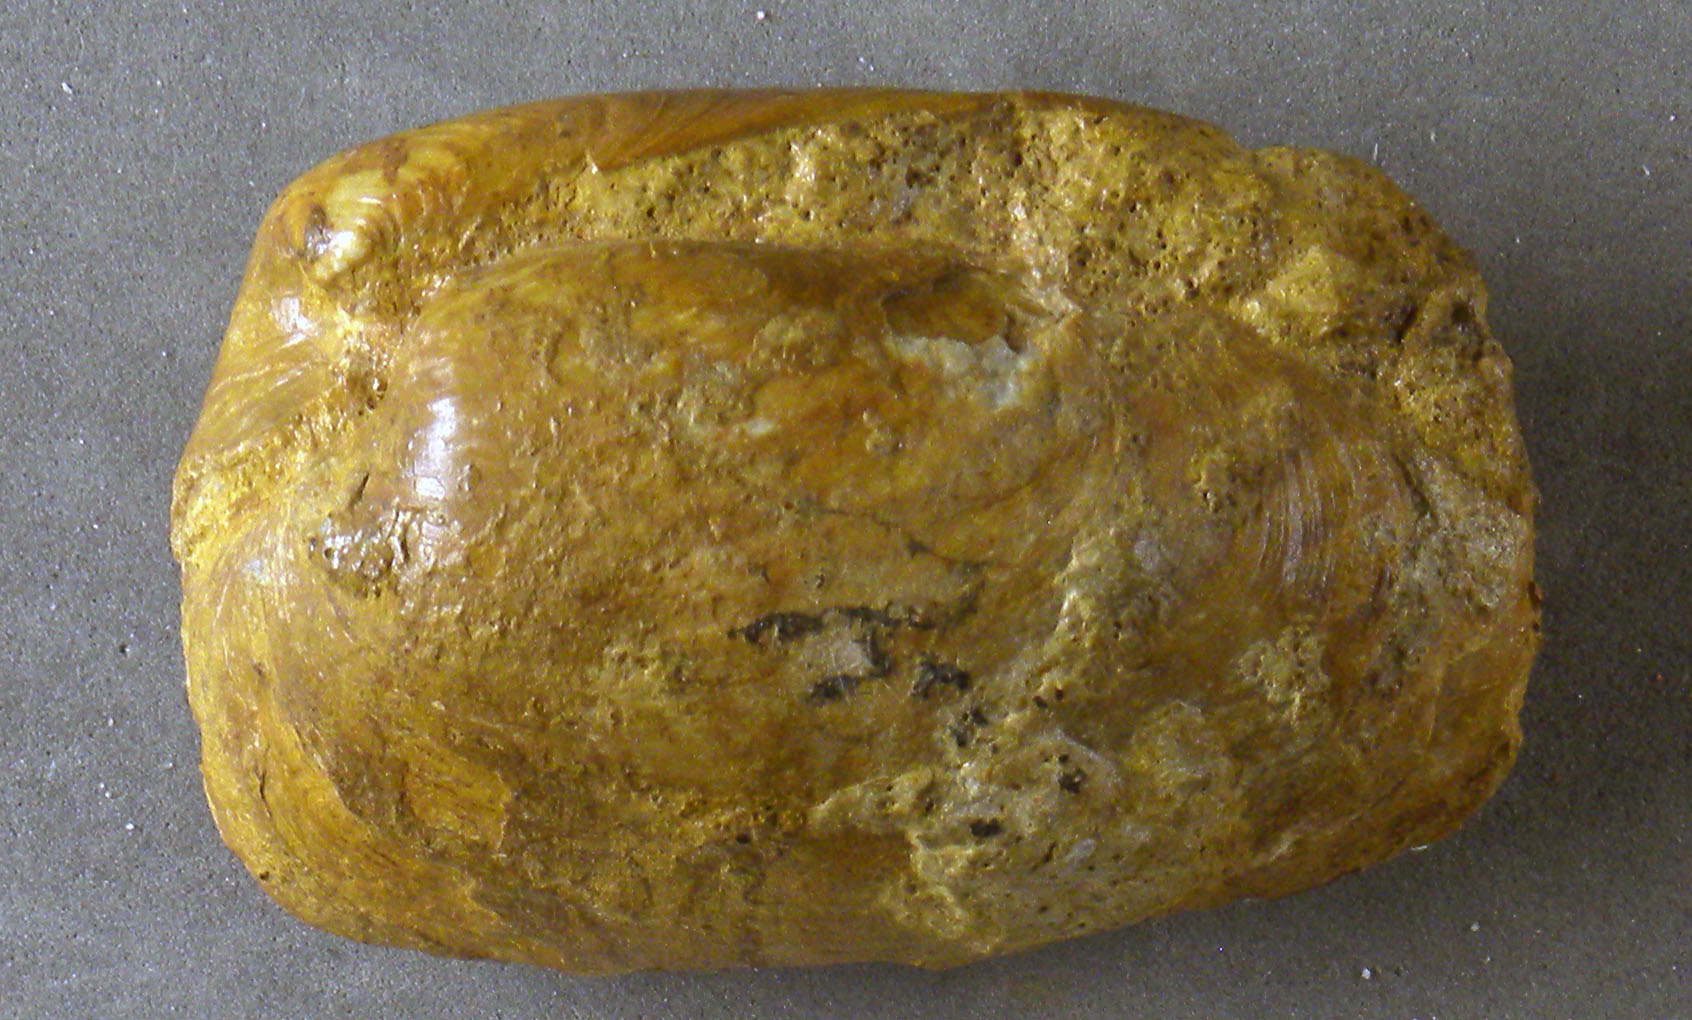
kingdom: Animalia
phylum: Mollusca
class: Bivalvia
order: Myida
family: Pleuromyidae
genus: Pleuromya
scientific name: Pleuromya
